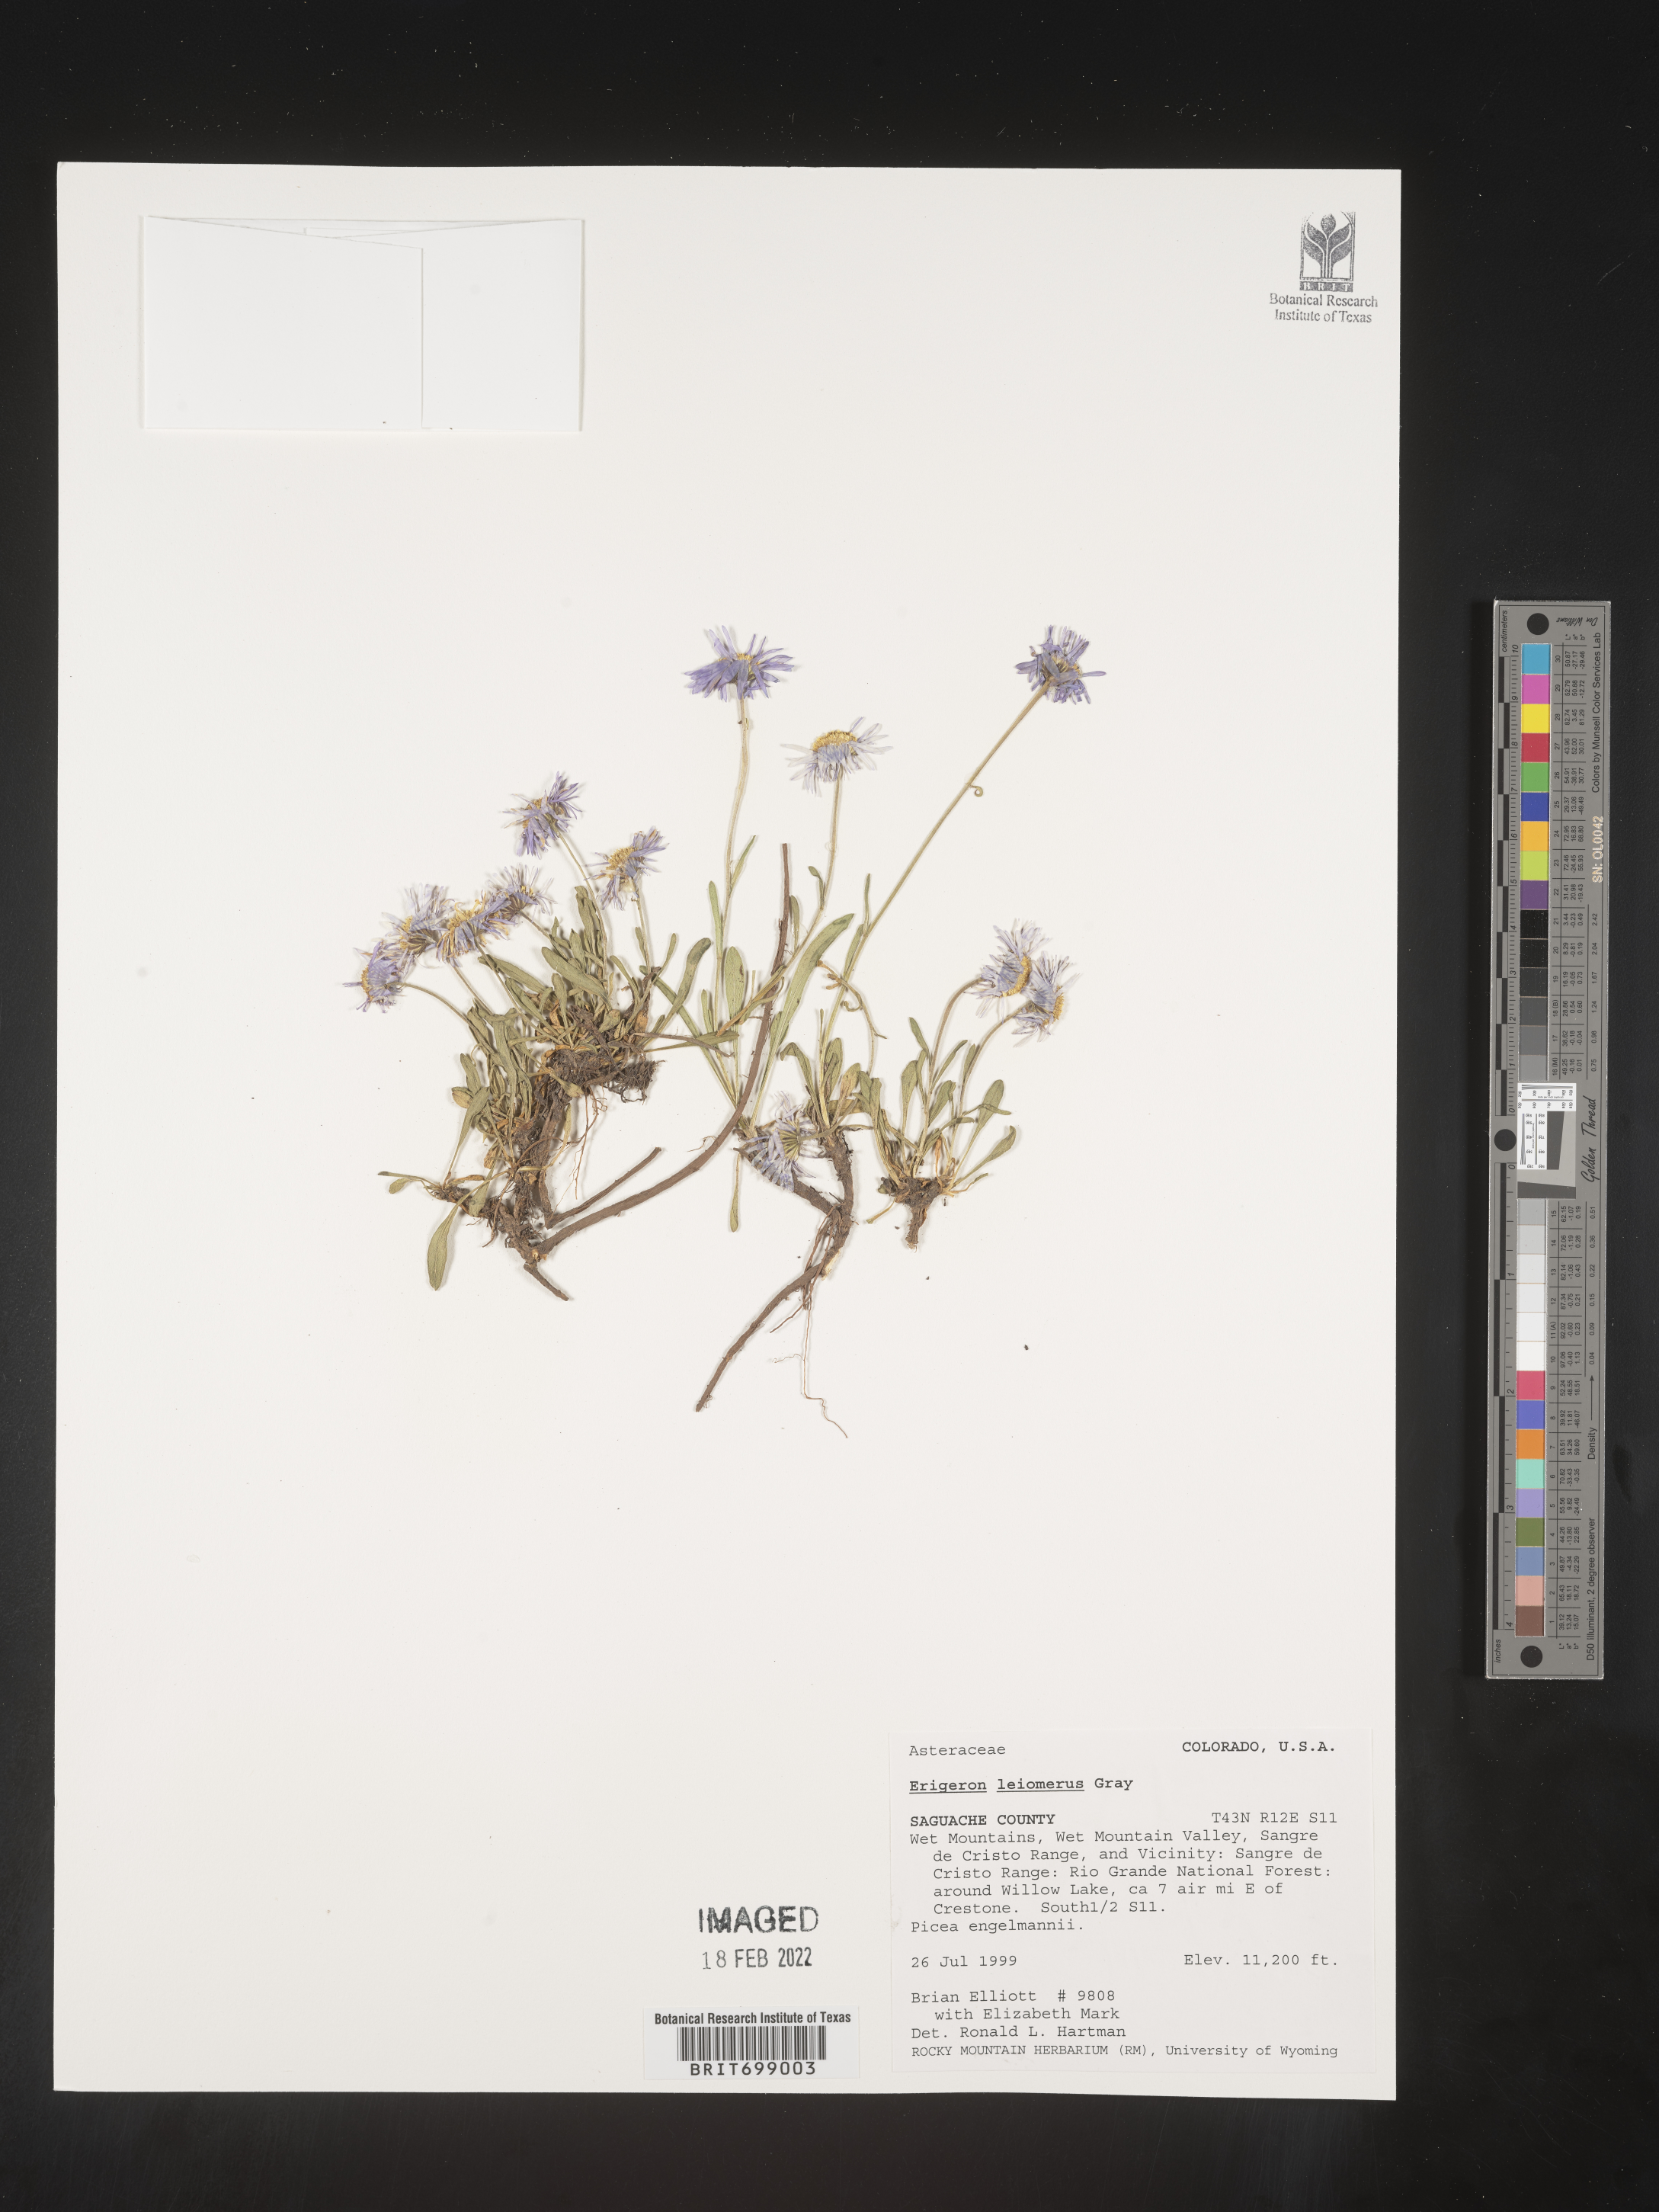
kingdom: Plantae
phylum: Tracheophyta
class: Magnoliopsida
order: Asterales
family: Asteraceae
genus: Erigeron
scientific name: Erigeron leiomerus
